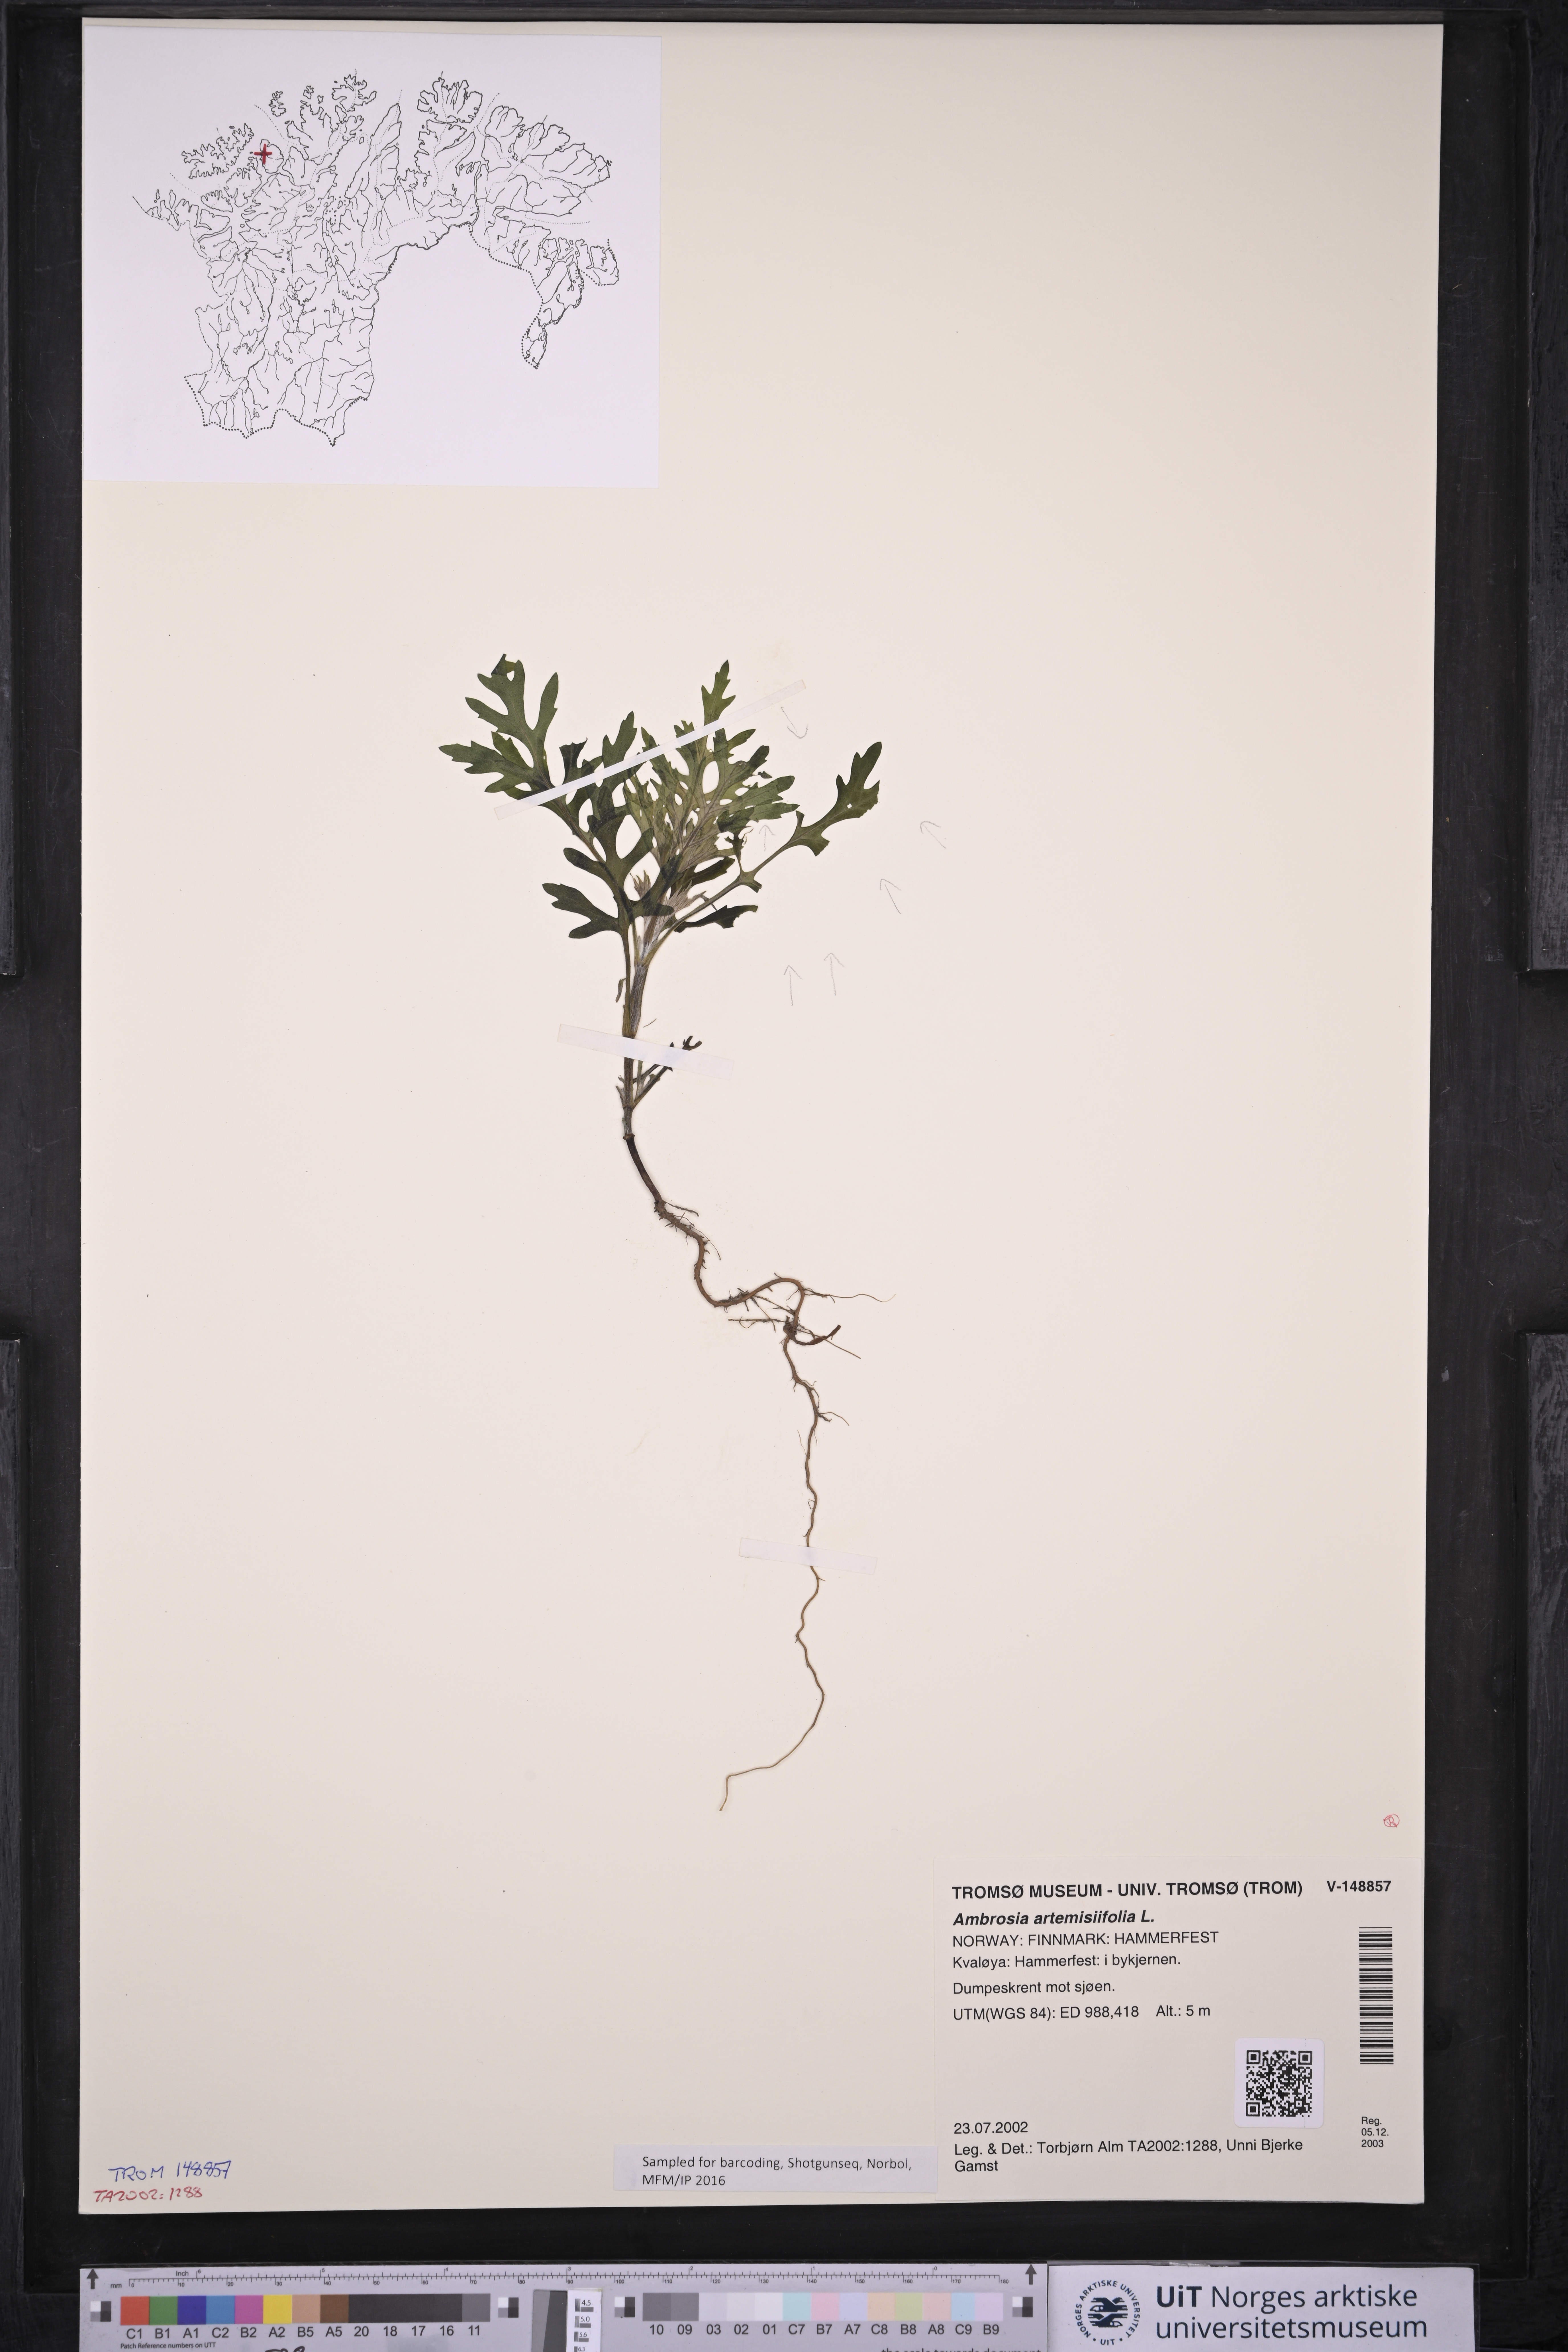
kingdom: Plantae
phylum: Tracheophyta
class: Magnoliopsida
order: Asterales
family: Asteraceae
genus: Ambrosia
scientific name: Ambrosia artemisiifolia
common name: Annual ragweed
